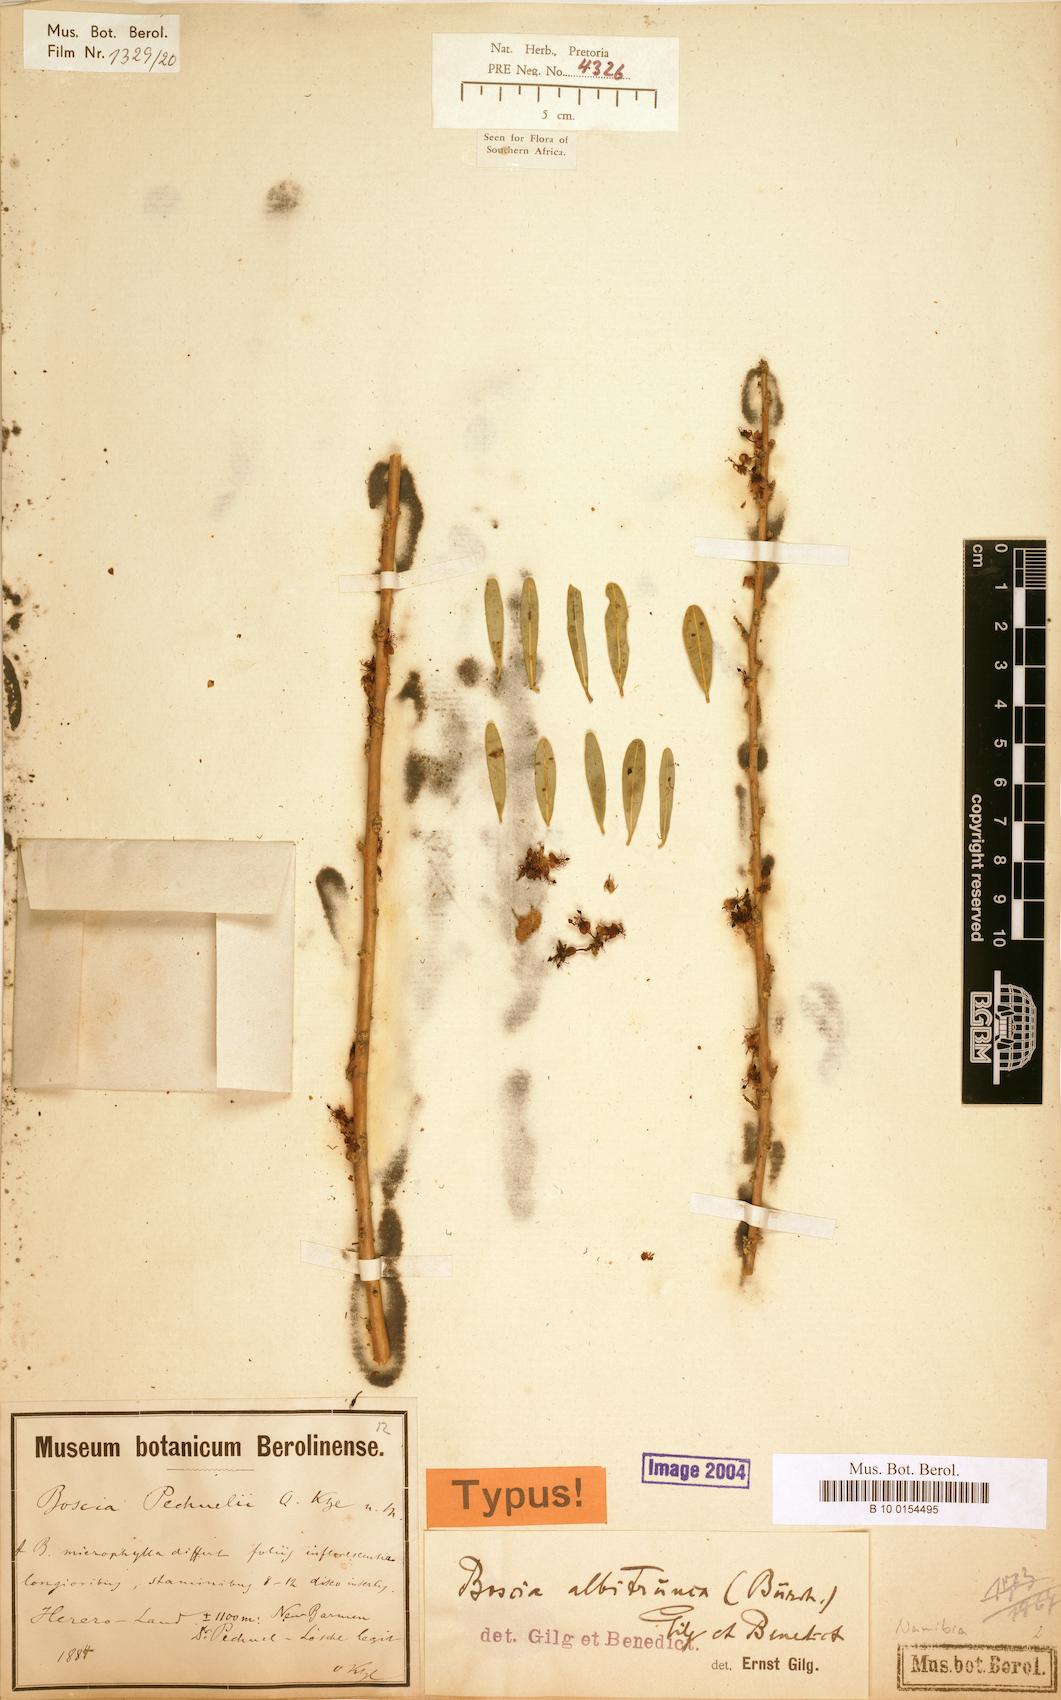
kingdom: Plantae
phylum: Tracheophyta
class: Magnoliopsida
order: Brassicales
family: Capparaceae
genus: Boscia
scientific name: Boscia albitrunca
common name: Caper bush
